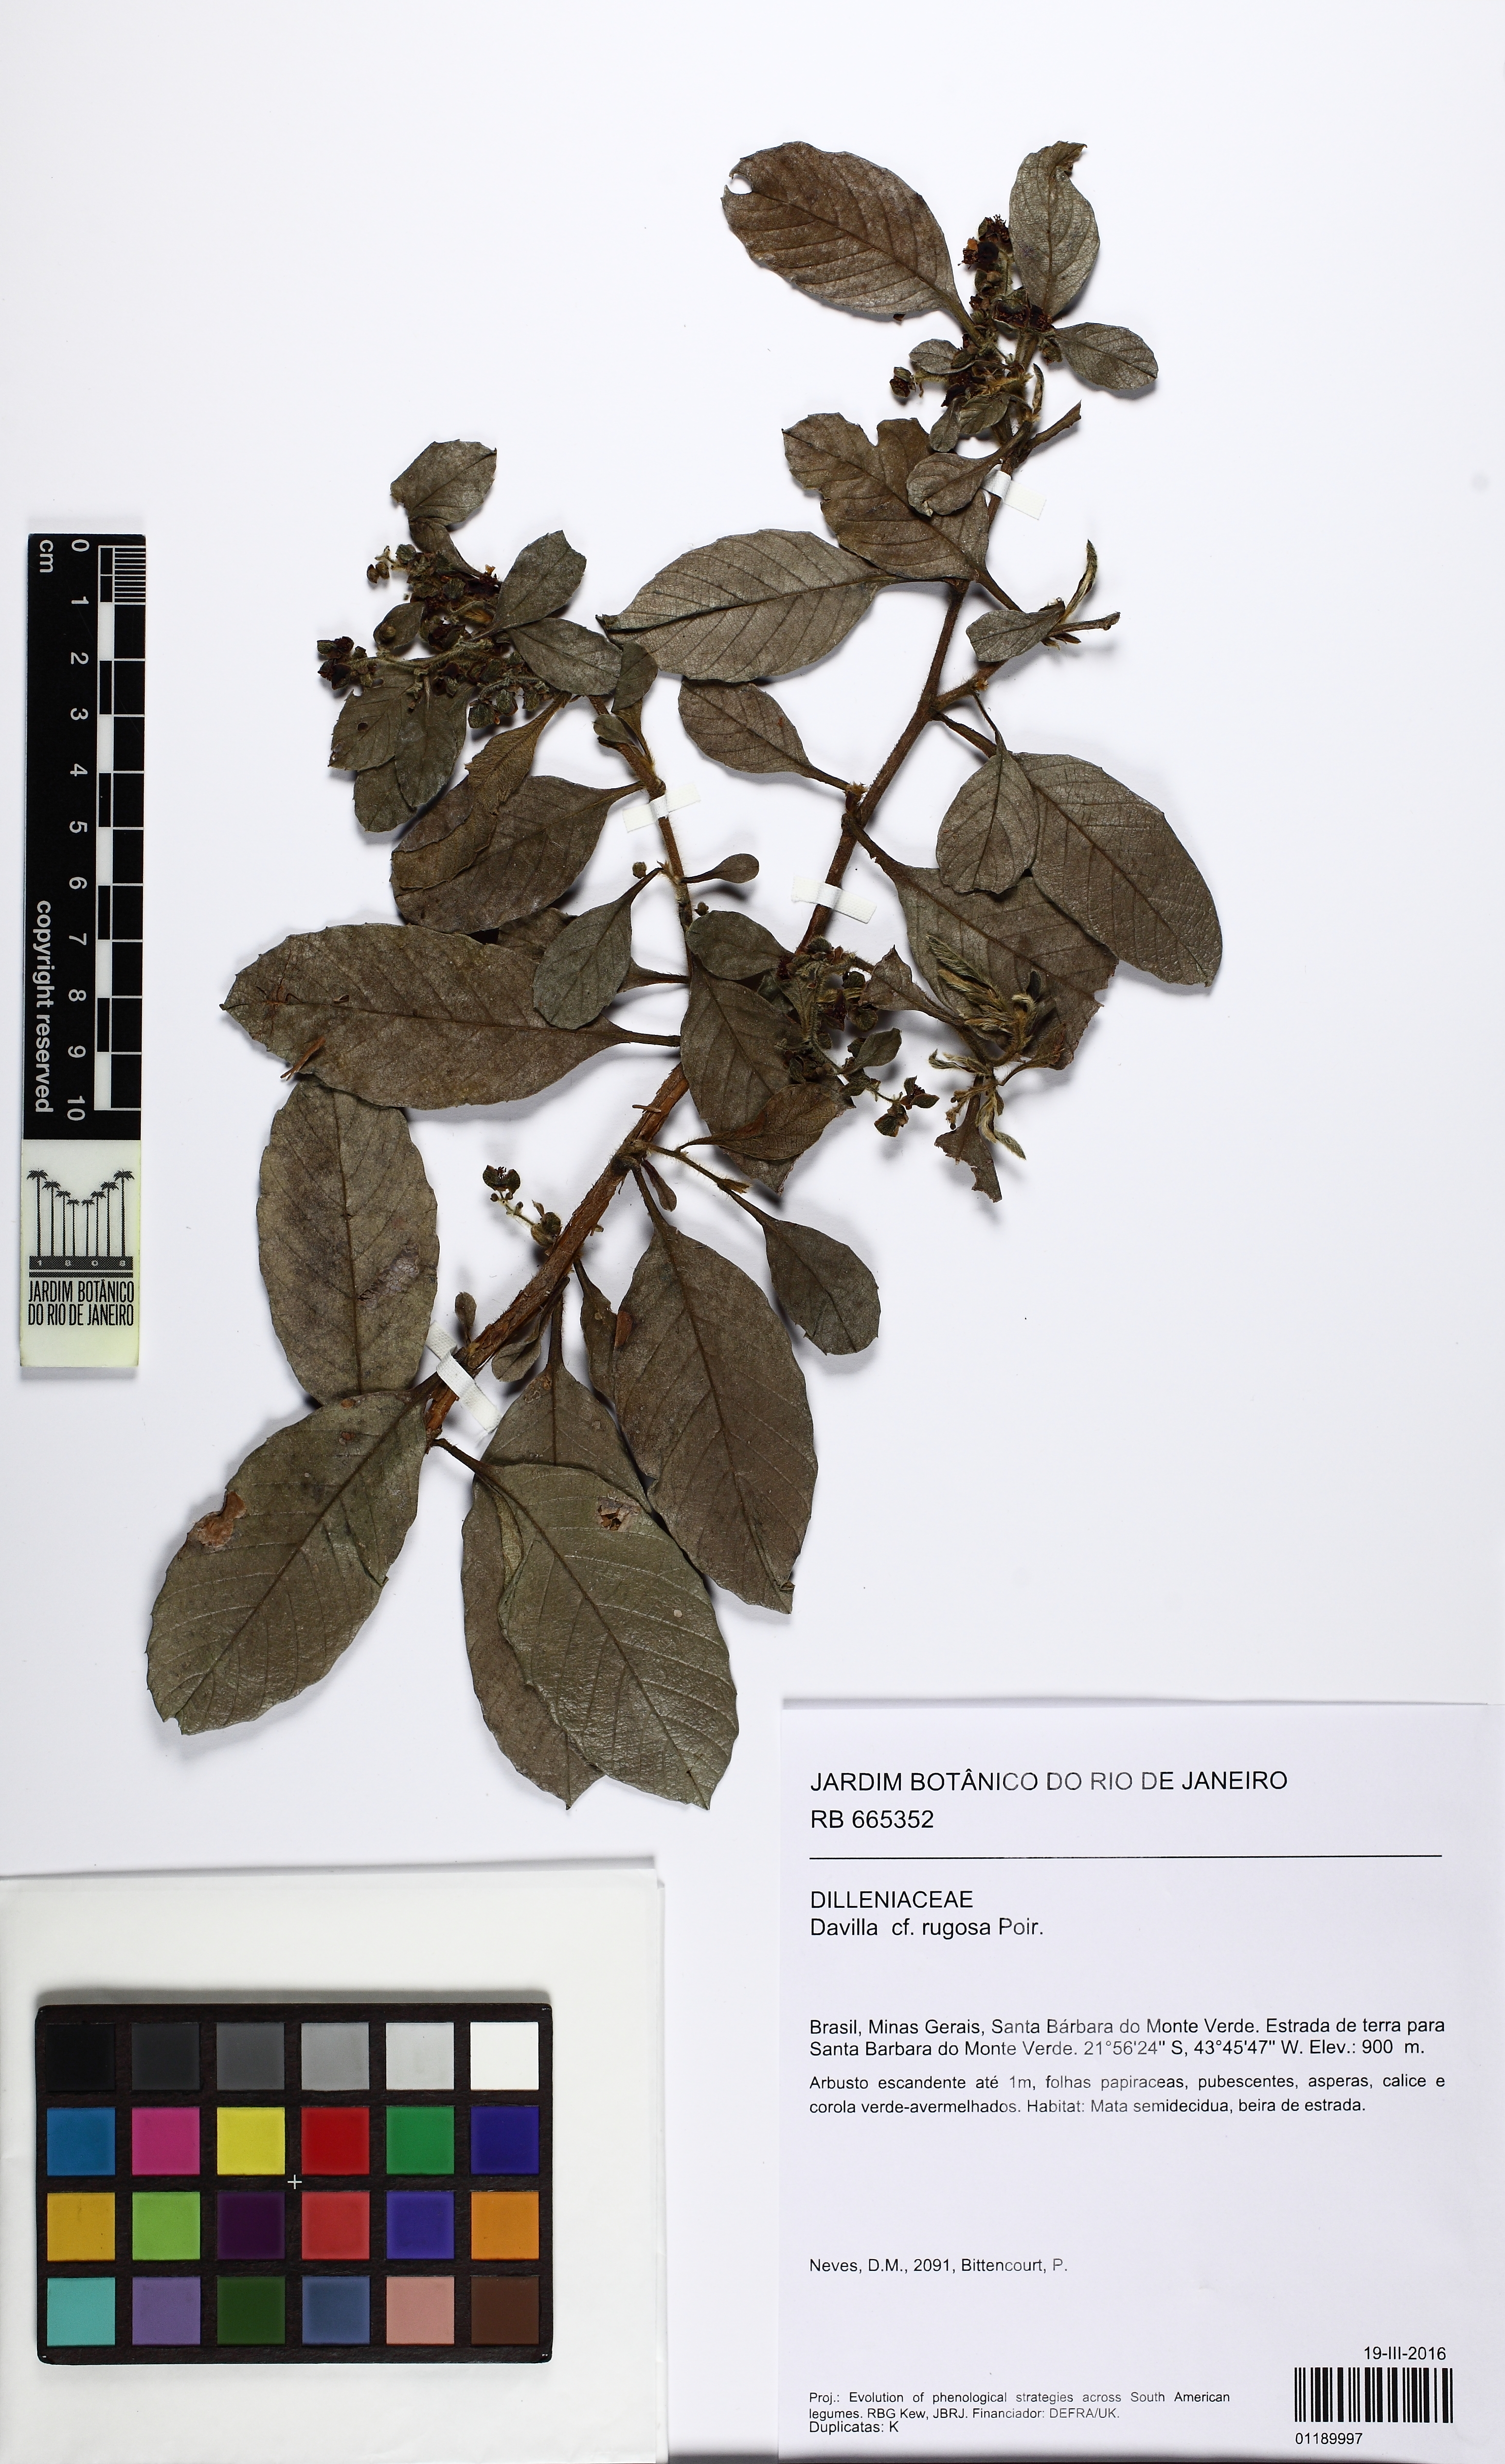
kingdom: Plantae
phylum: Tracheophyta
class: Magnoliopsida
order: Dilleniales
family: Dilleniaceae
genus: Davilla
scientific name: Davilla rugosa
